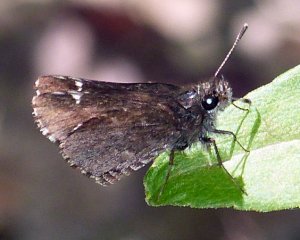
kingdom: Animalia
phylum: Arthropoda
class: Insecta
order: Lepidoptera
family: Hesperiidae
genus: Mastor
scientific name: Mastor vialis
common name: Common Roadside-Skipper
